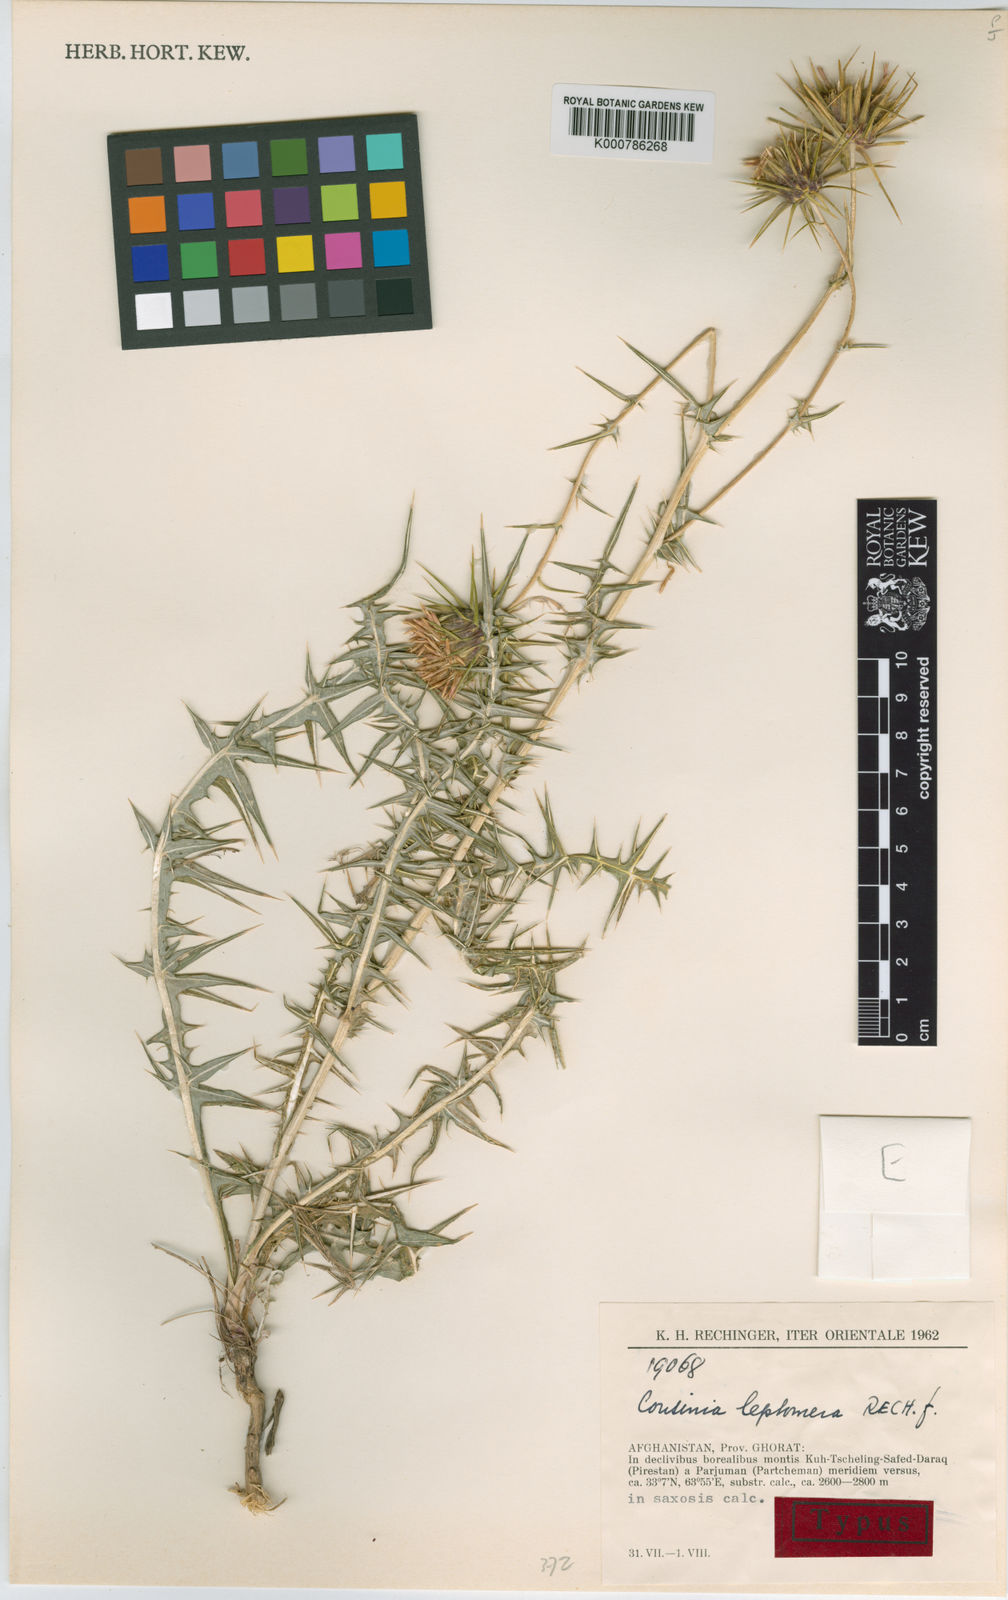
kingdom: Plantae
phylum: Tracheophyta
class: Magnoliopsida
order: Asterales
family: Asteraceae
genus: Cousinia
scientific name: Cousinia leptomera
